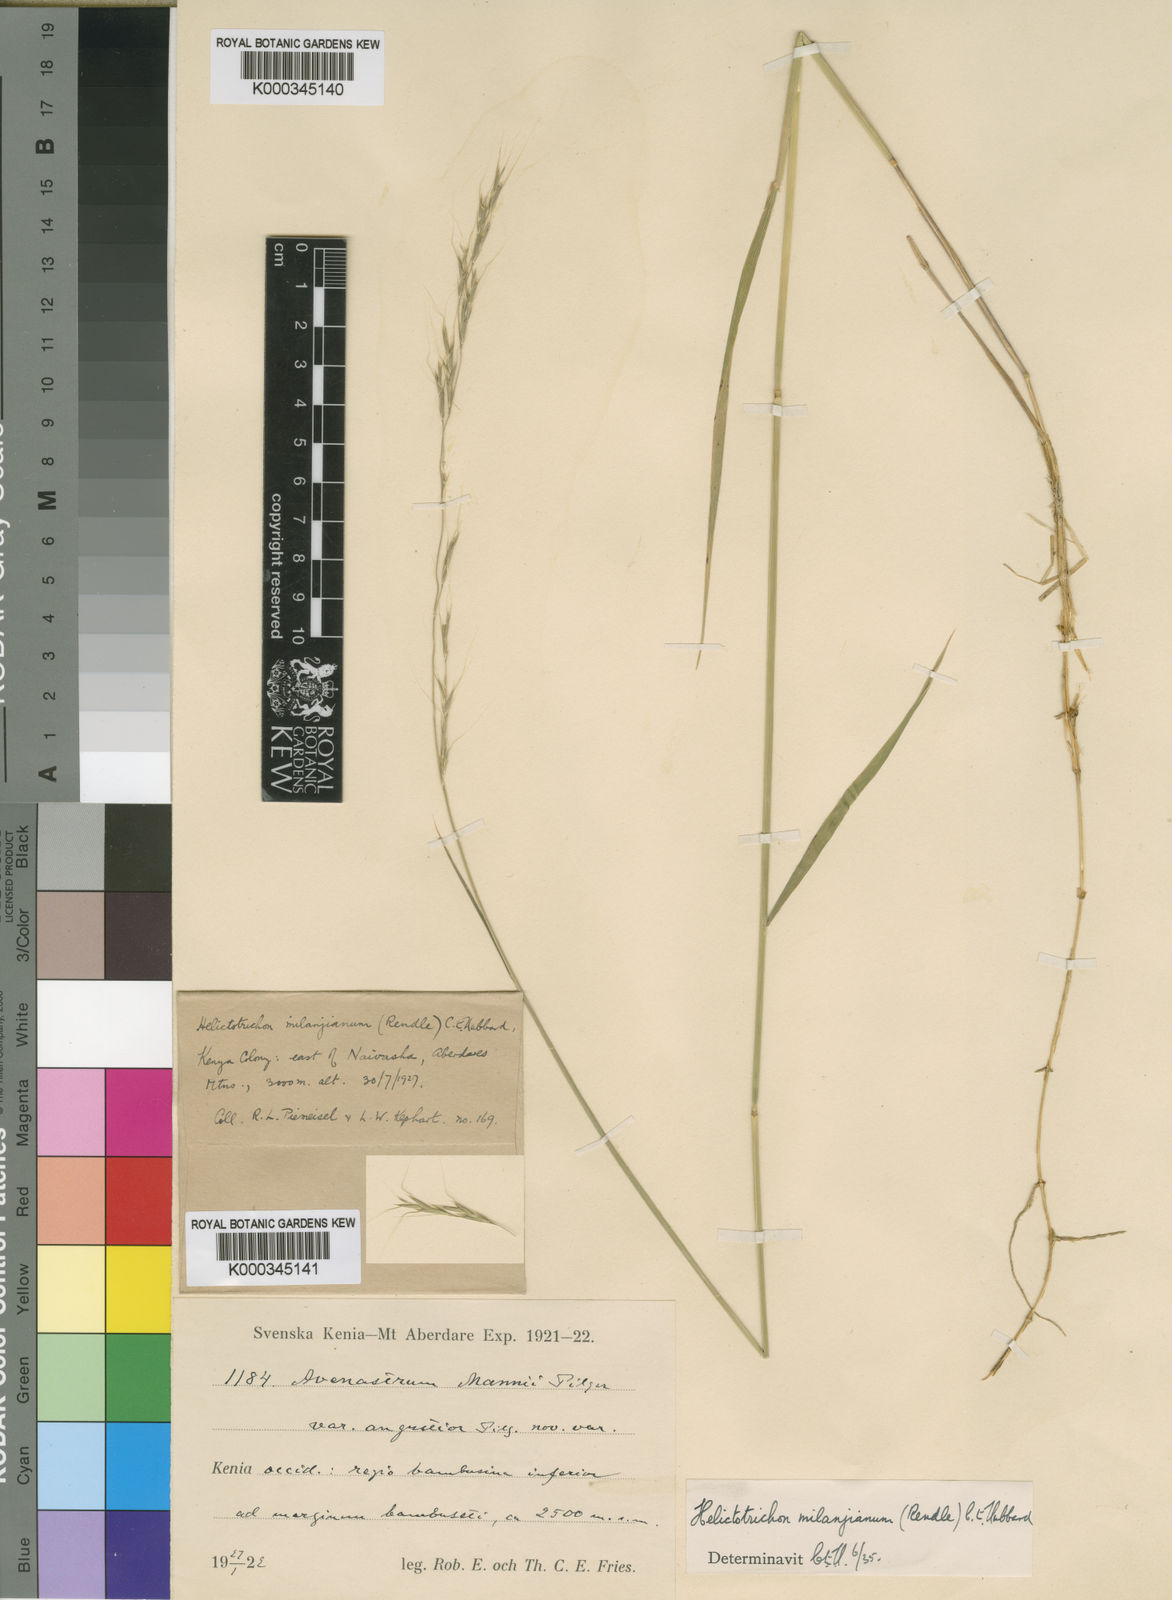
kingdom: Plantae
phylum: Tracheophyta
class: Liliopsida
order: Poales
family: Poaceae
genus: Trisetopsis
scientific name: Trisetopsis milanjiana
